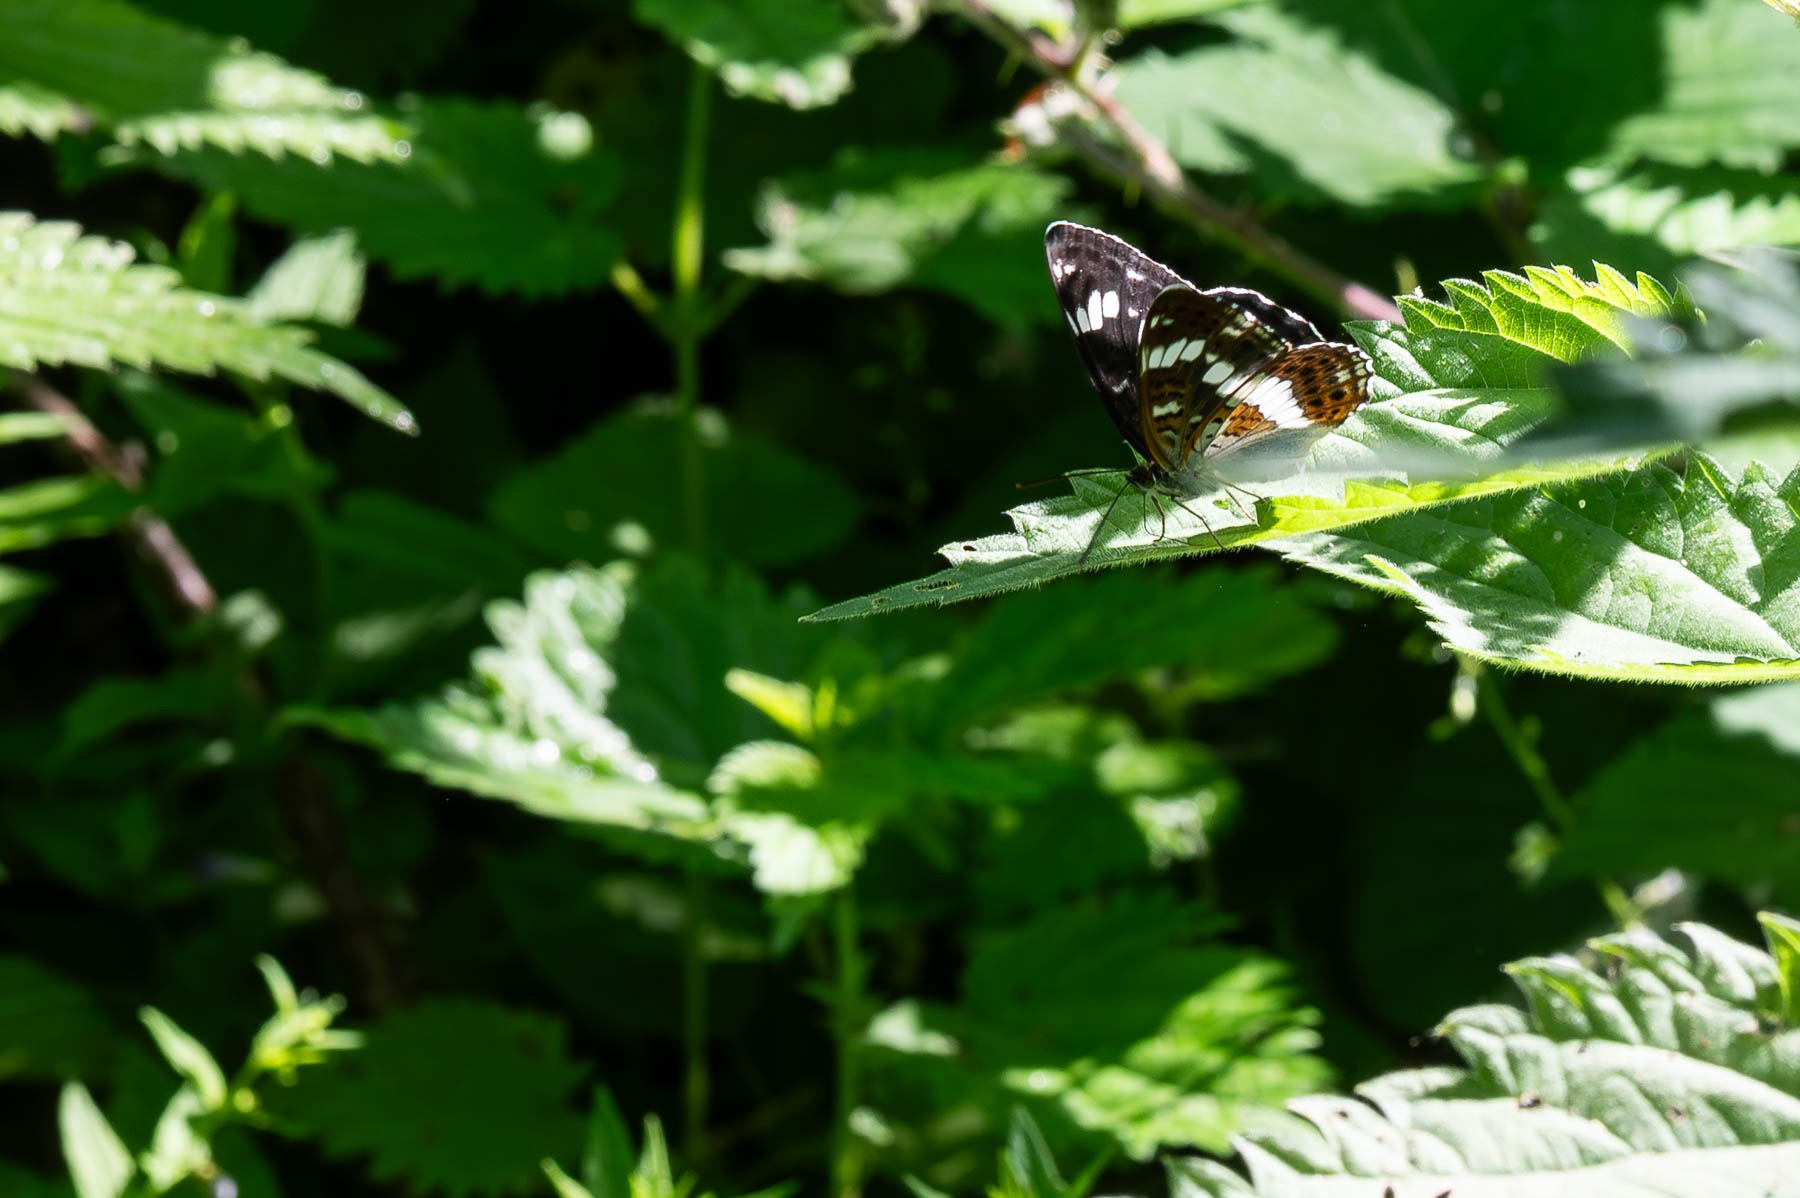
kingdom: Animalia
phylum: Arthropoda
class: Insecta
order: Lepidoptera
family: Nymphalidae
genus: Ladoga
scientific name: Ladoga camilla
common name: Hvid admiral
